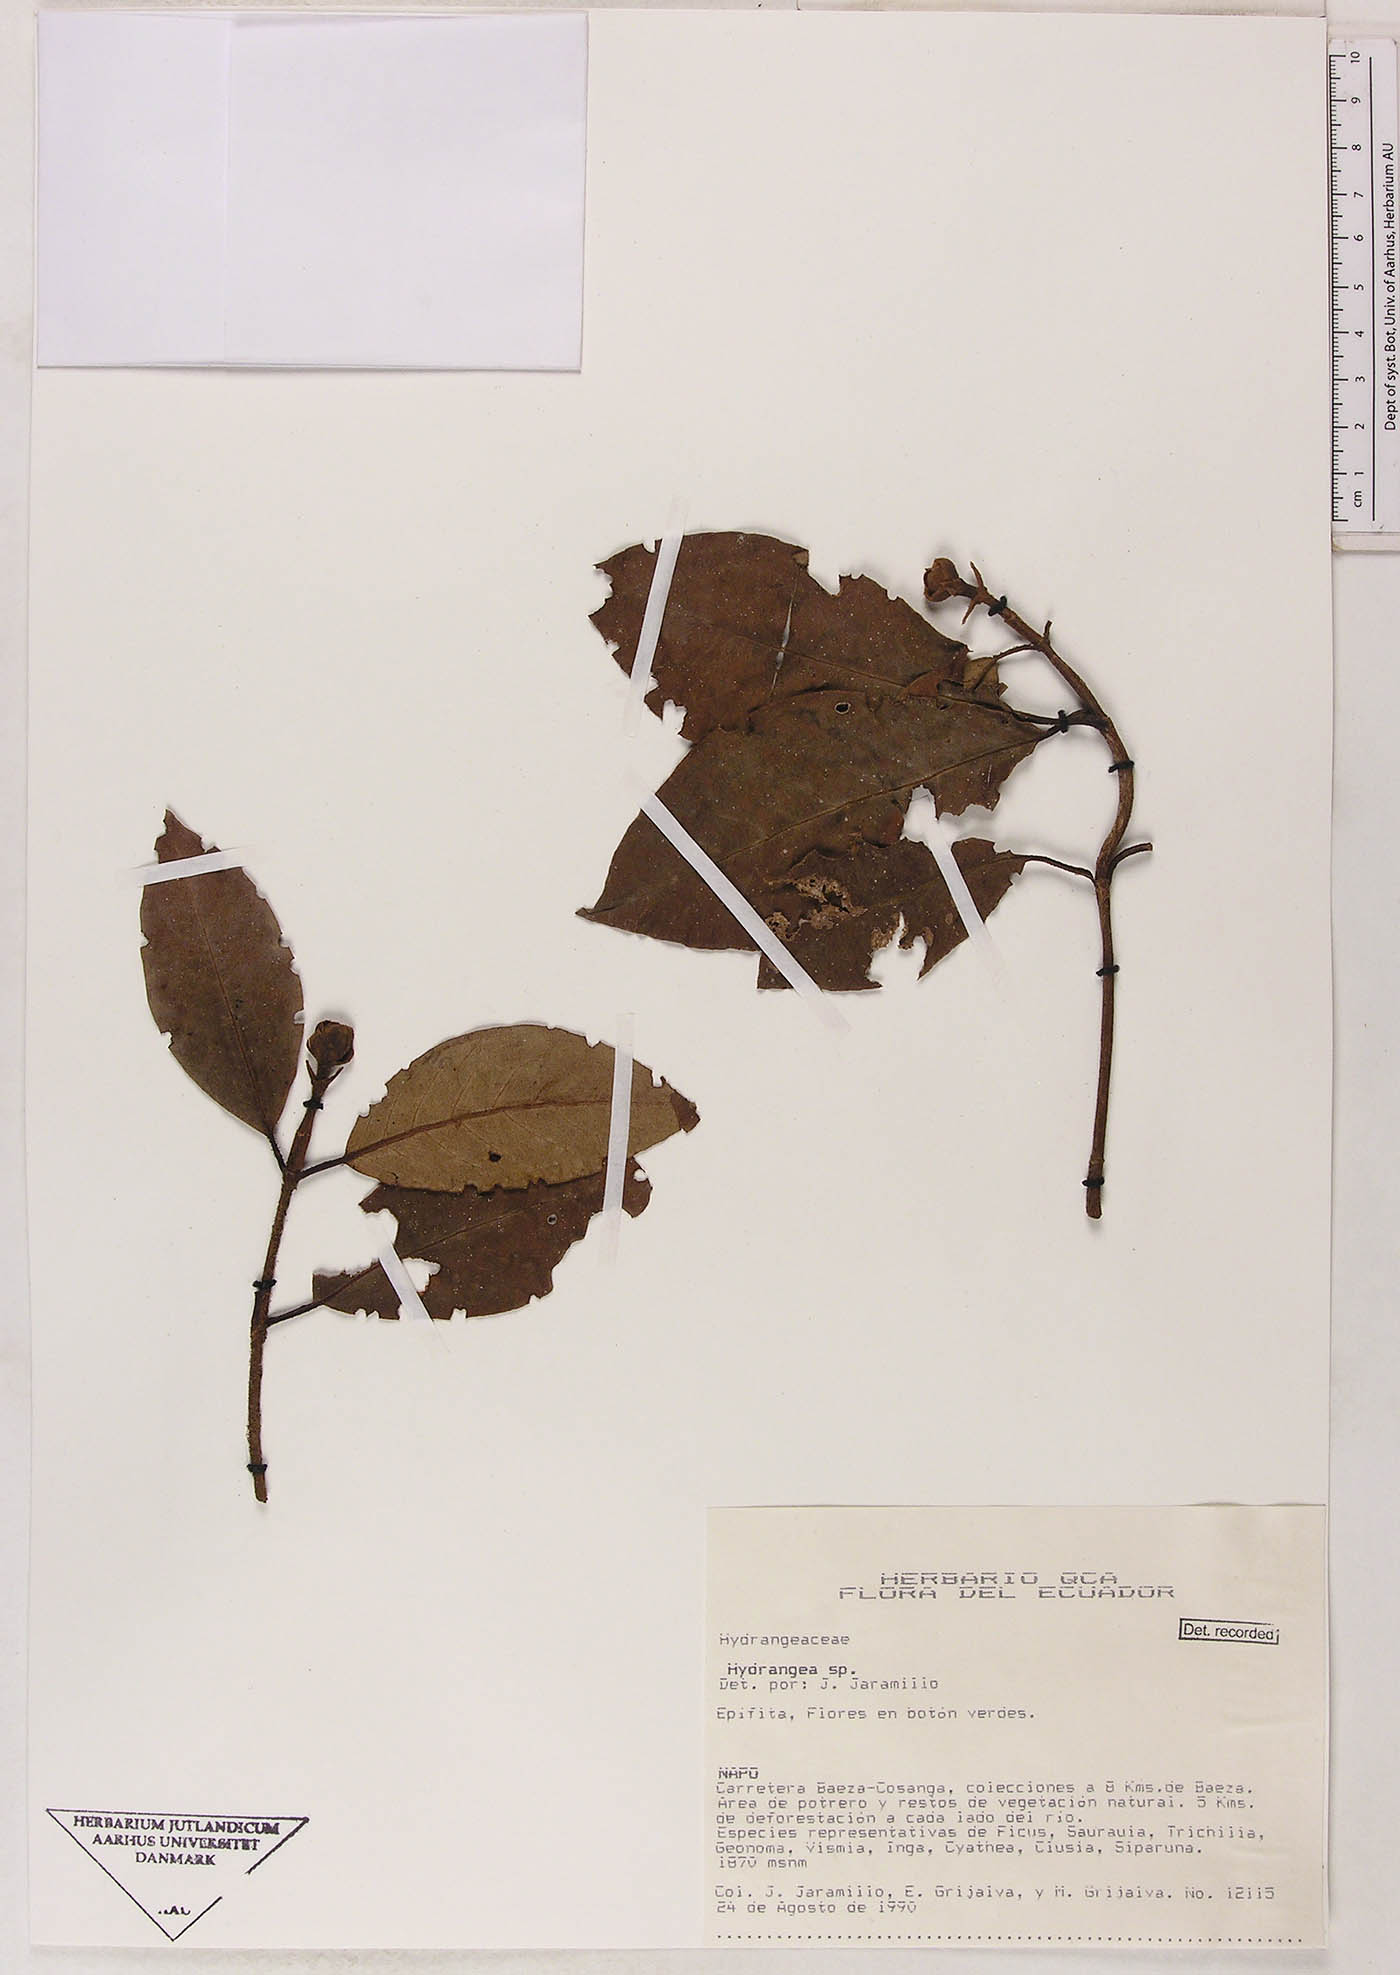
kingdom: Plantae
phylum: Tracheophyta
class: Magnoliopsida
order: Cornales
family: Hydrangeaceae
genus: Hydrangea
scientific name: Hydrangea
